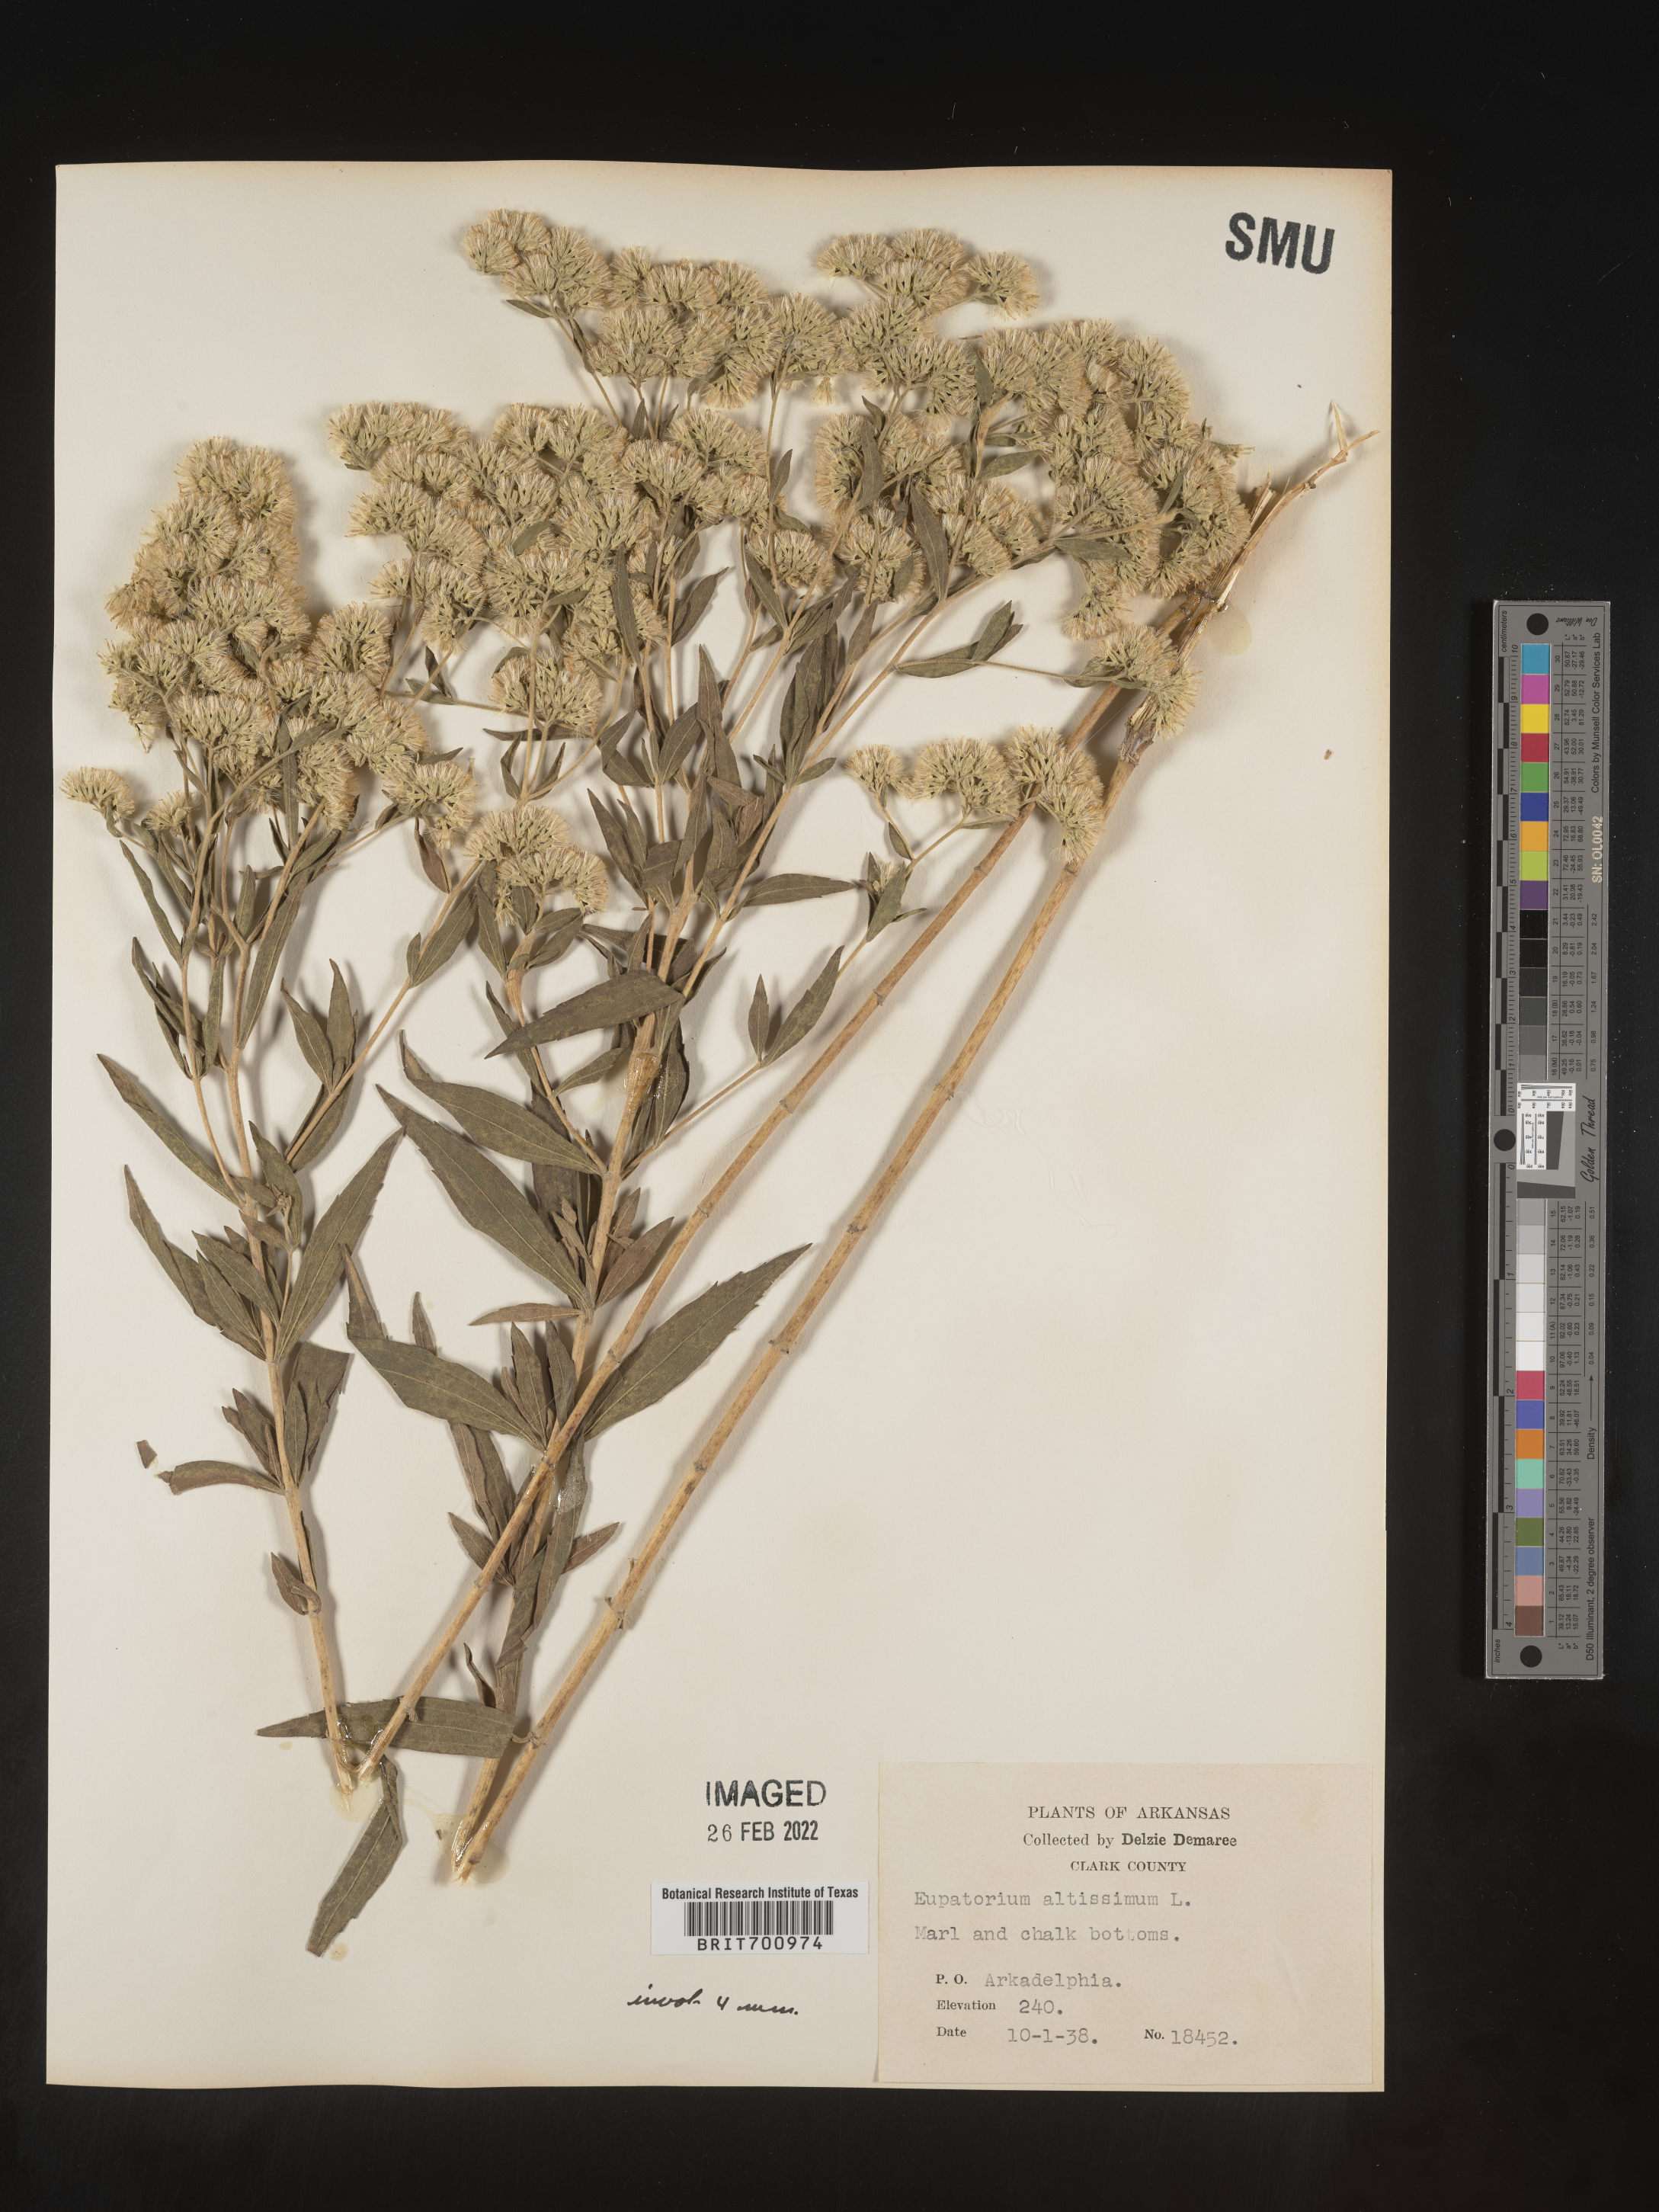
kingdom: Plantae
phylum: Tracheophyta
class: Magnoliopsida
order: Asterales
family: Asteraceae
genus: Eupatorium
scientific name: Eupatorium altissimum
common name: Tall thoroughwort
